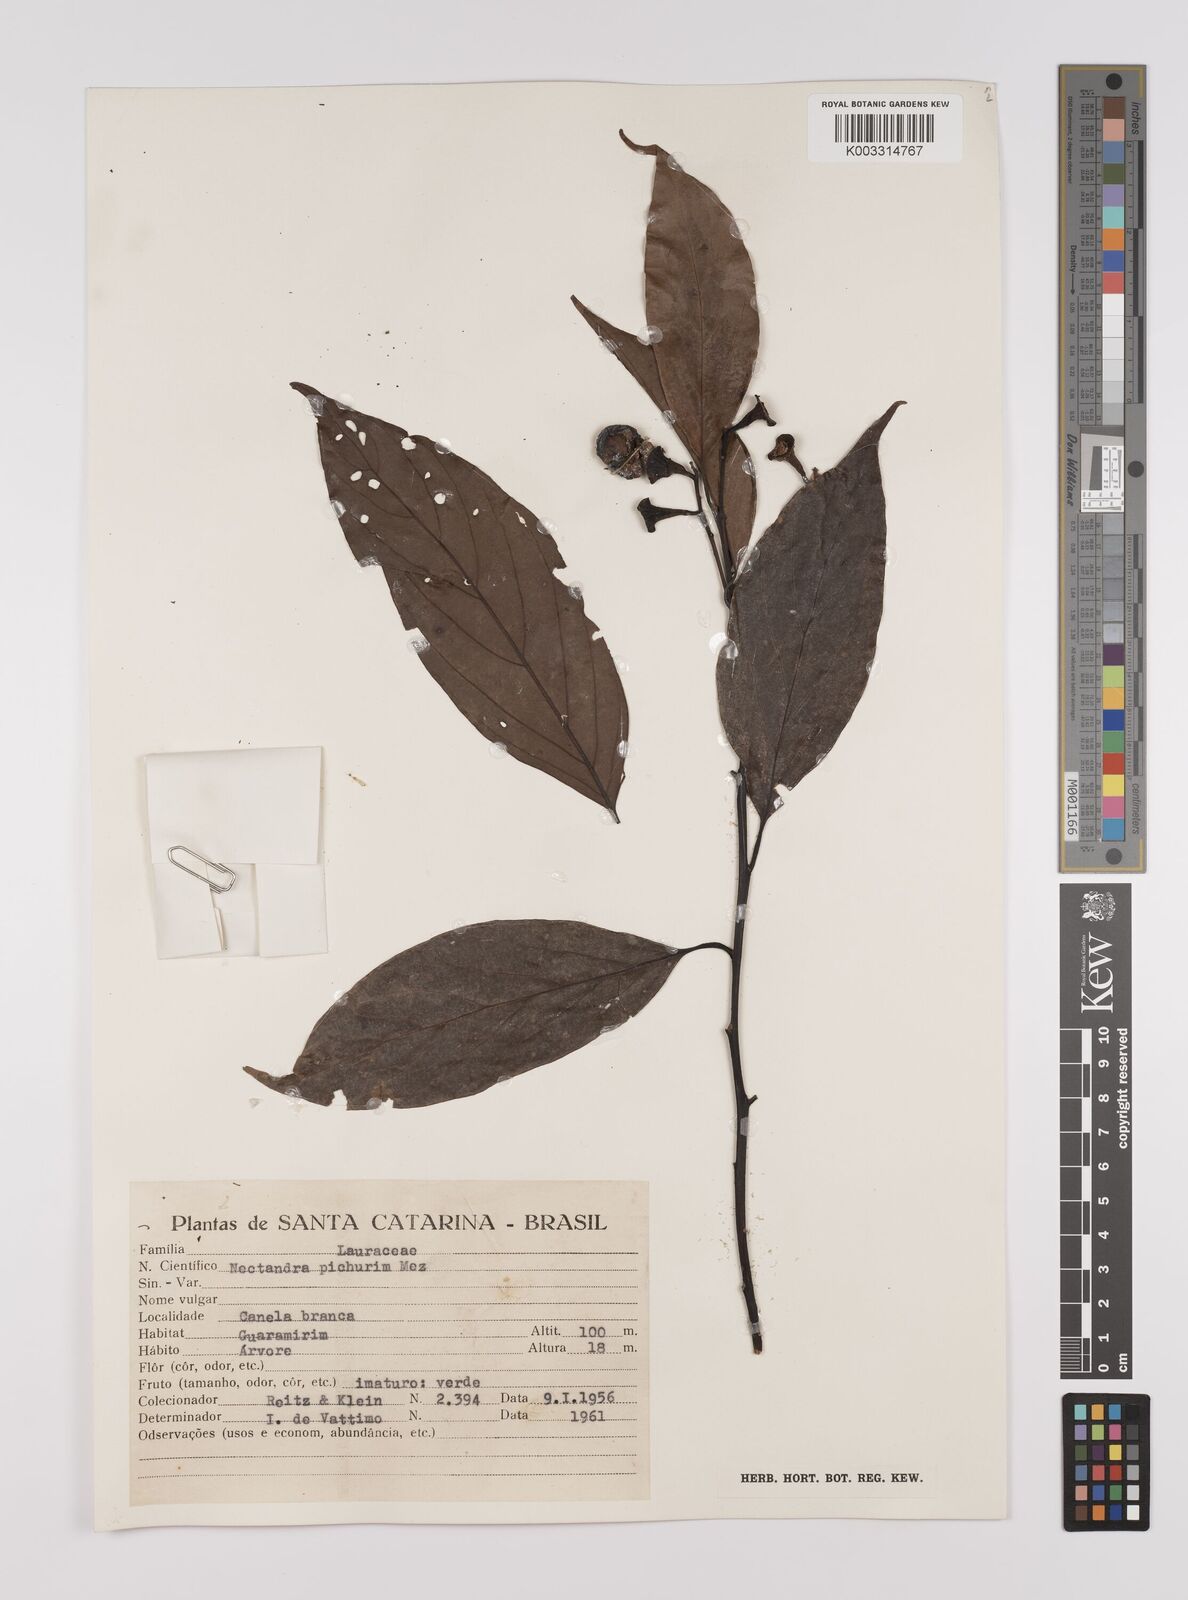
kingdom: Plantae
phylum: Tracheophyta
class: Magnoliopsida
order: Laurales
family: Lauraceae
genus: Nectandra
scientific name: Nectandra cuspidata
